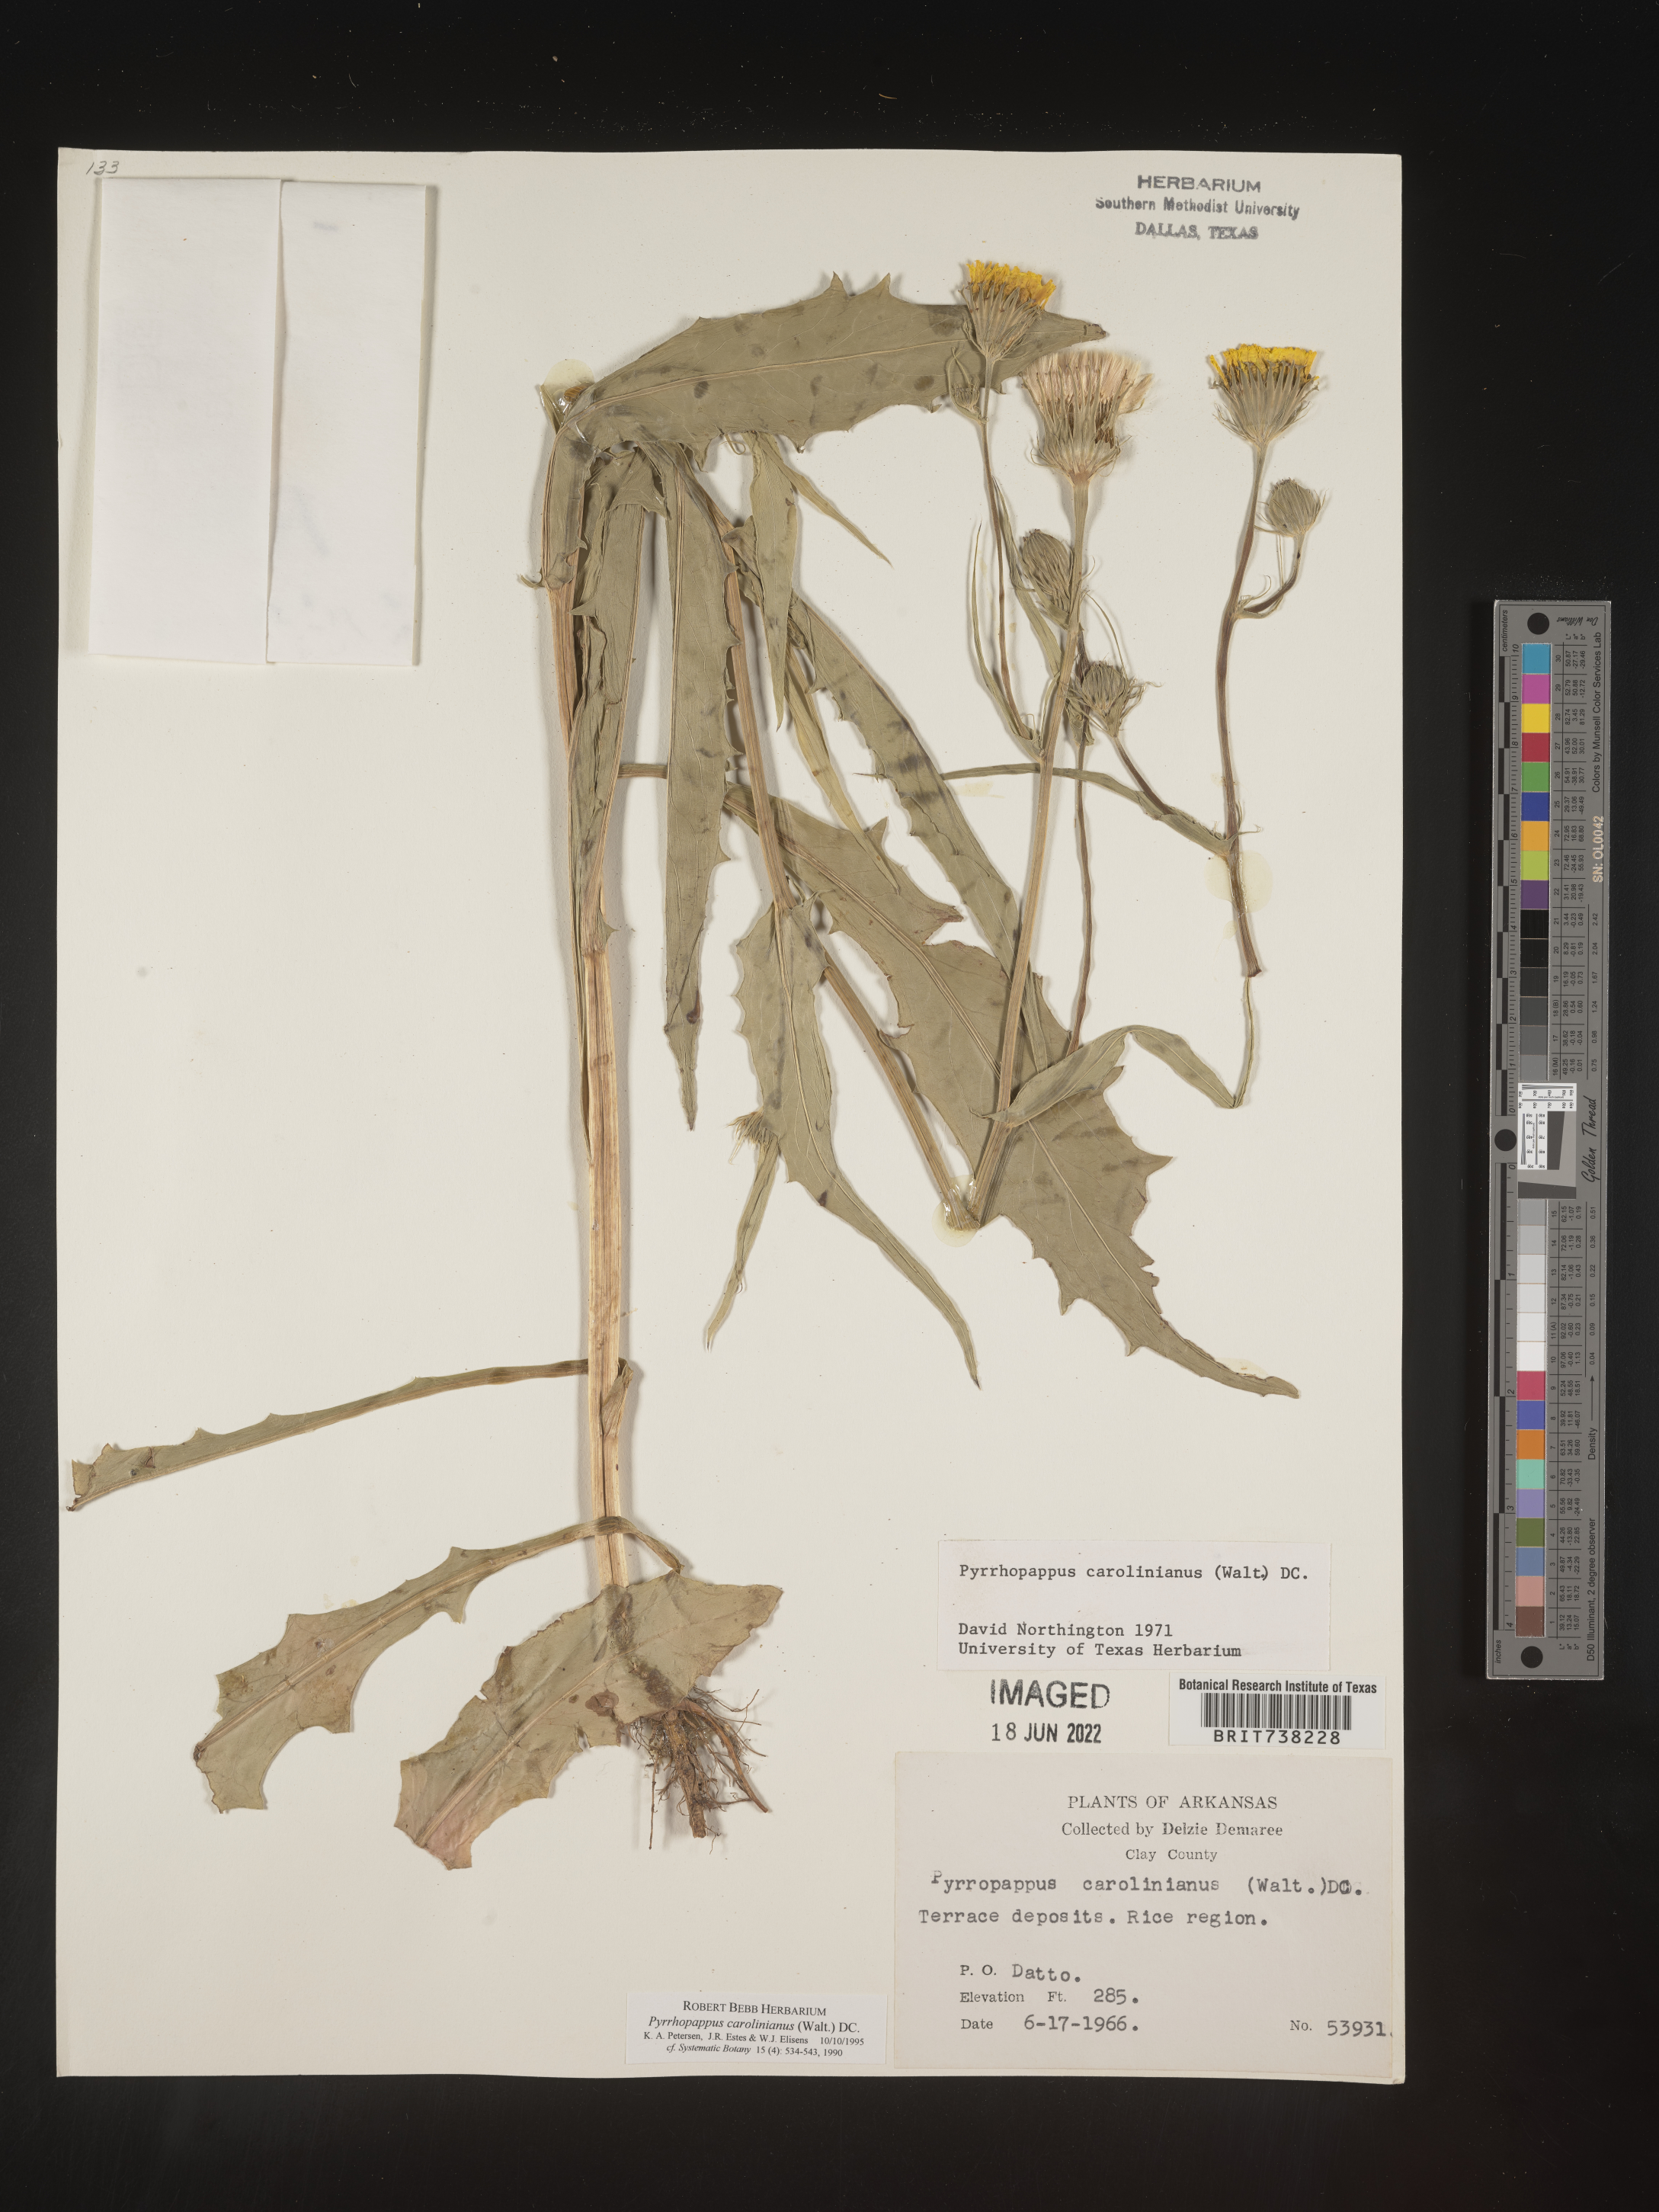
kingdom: Plantae
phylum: Tracheophyta
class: Magnoliopsida
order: Asterales
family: Asteraceae
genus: Pyrrhopappus
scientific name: Pyrrhopappus carolinianus
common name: Carolina desert-chicory
